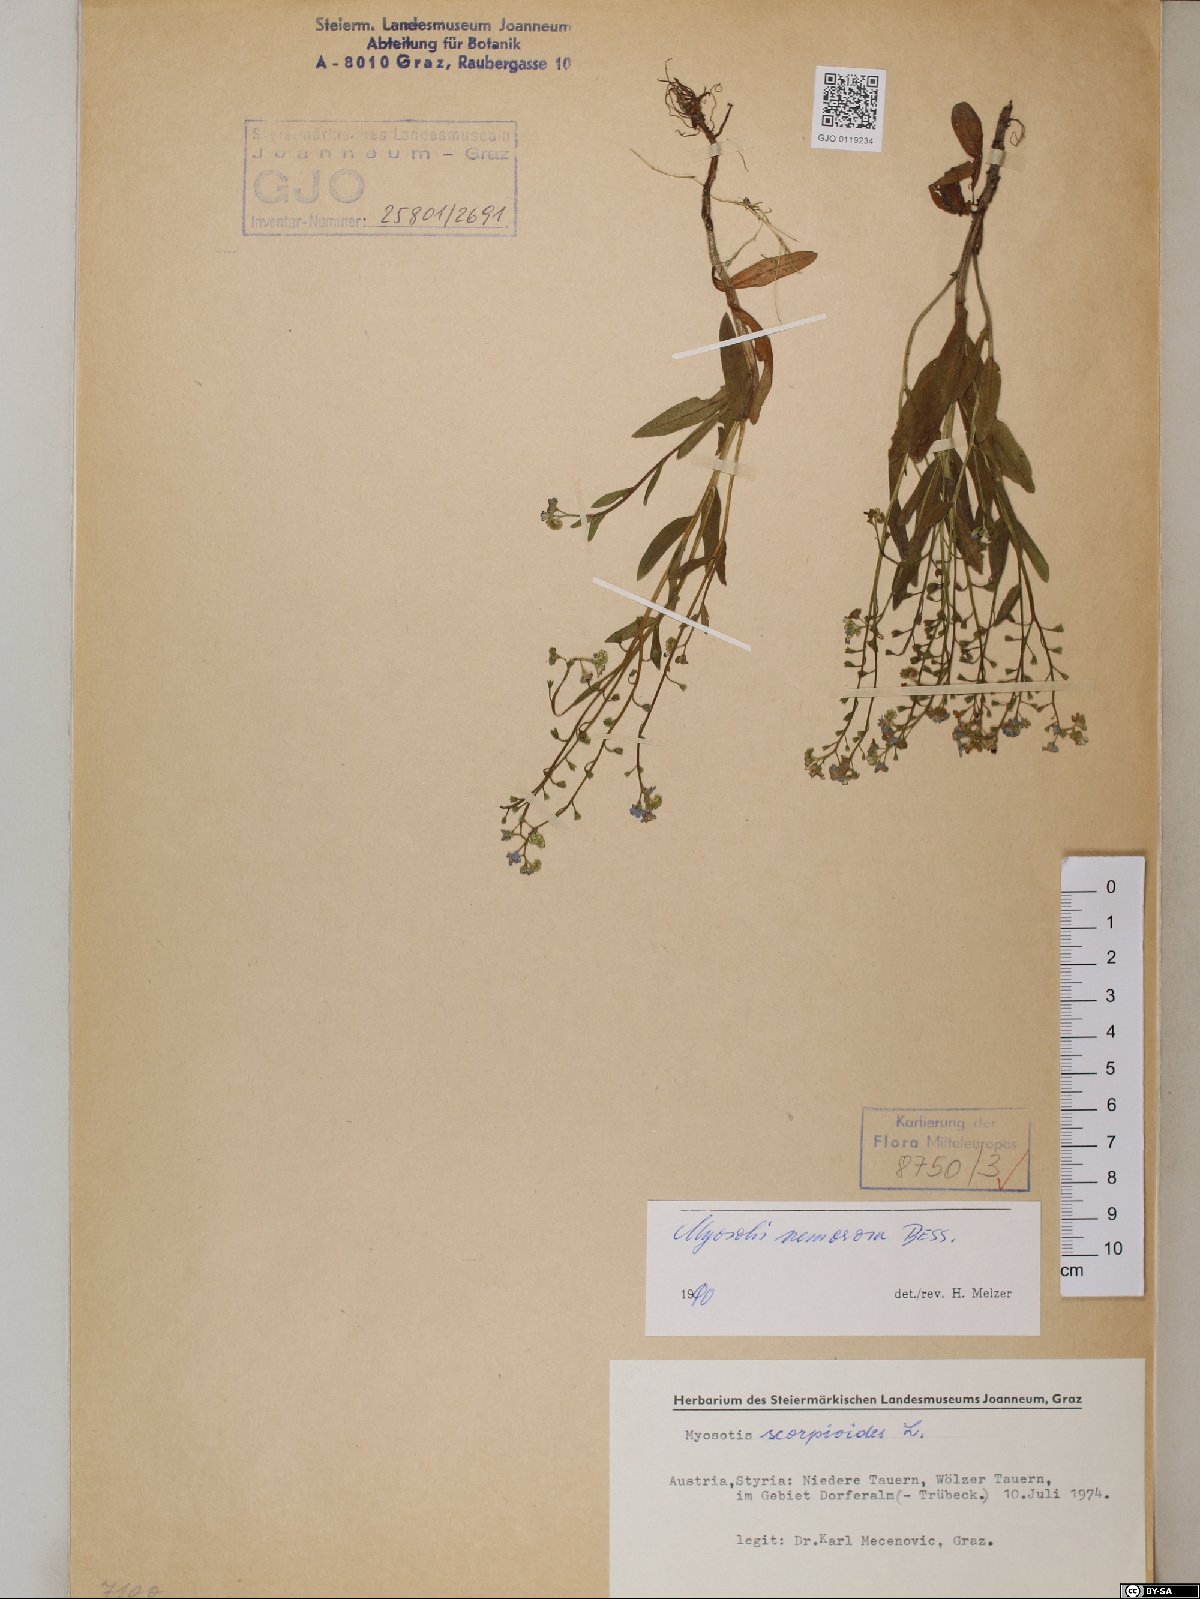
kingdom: Plantae
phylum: Tracheophyta
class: Magnoliopsida
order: Boraginales
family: Boraginaceae
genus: Myosotis
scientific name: Myosotis nemorosa
